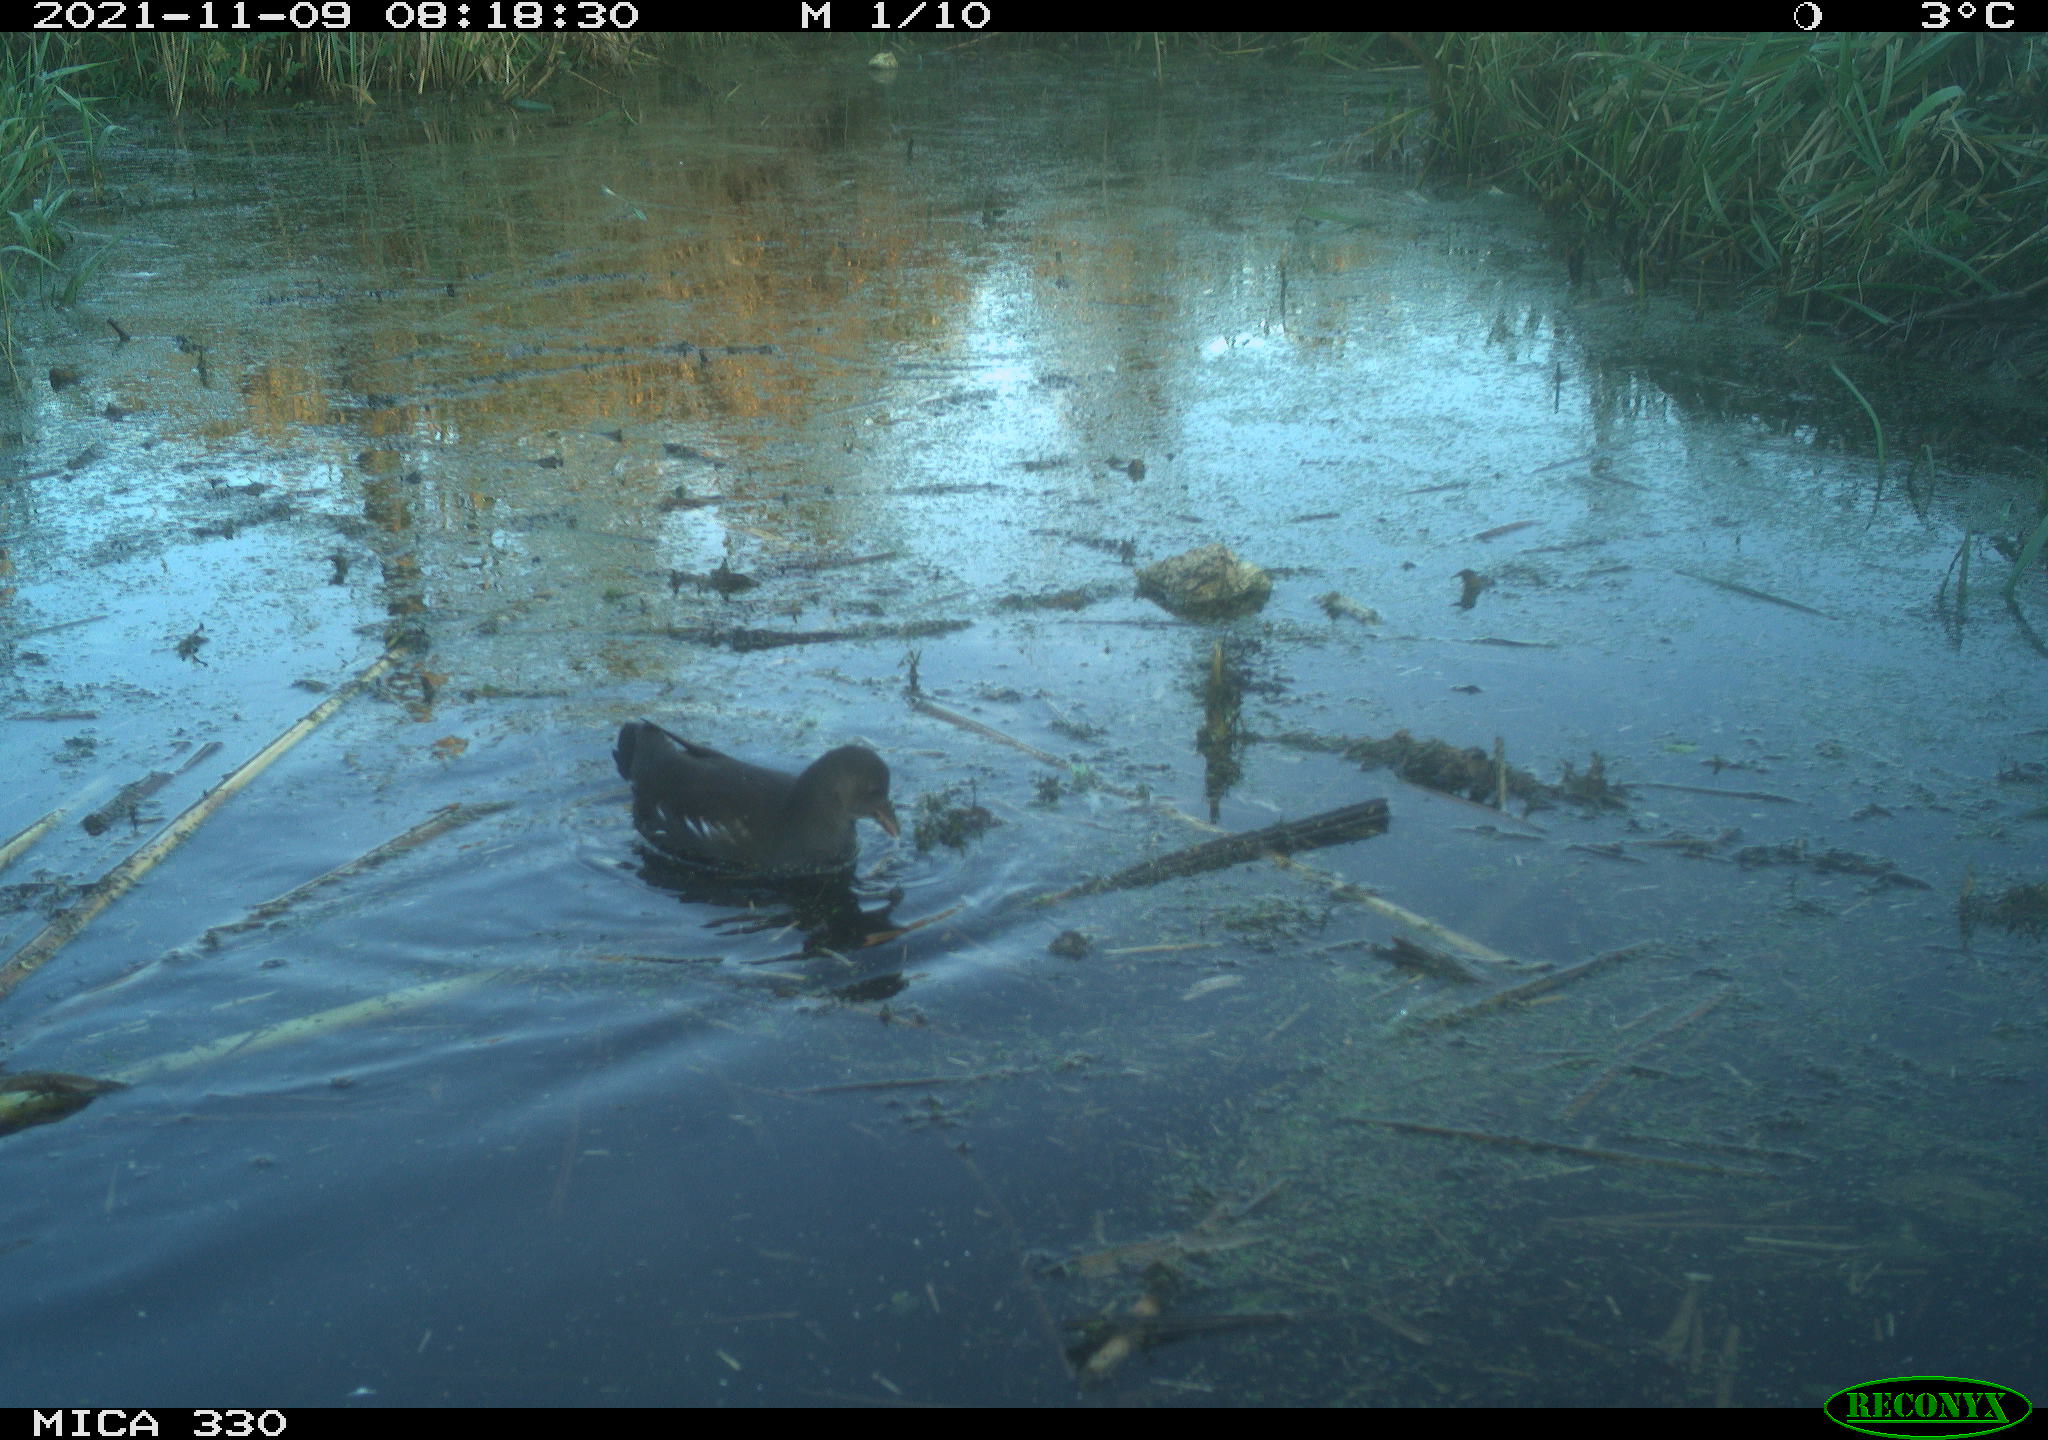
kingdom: Animalia
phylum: Chordata
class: Aves
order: Gruiformes
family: Rallidae
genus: Gallinula
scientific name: Gallinula chloropus
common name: Common moorhen
